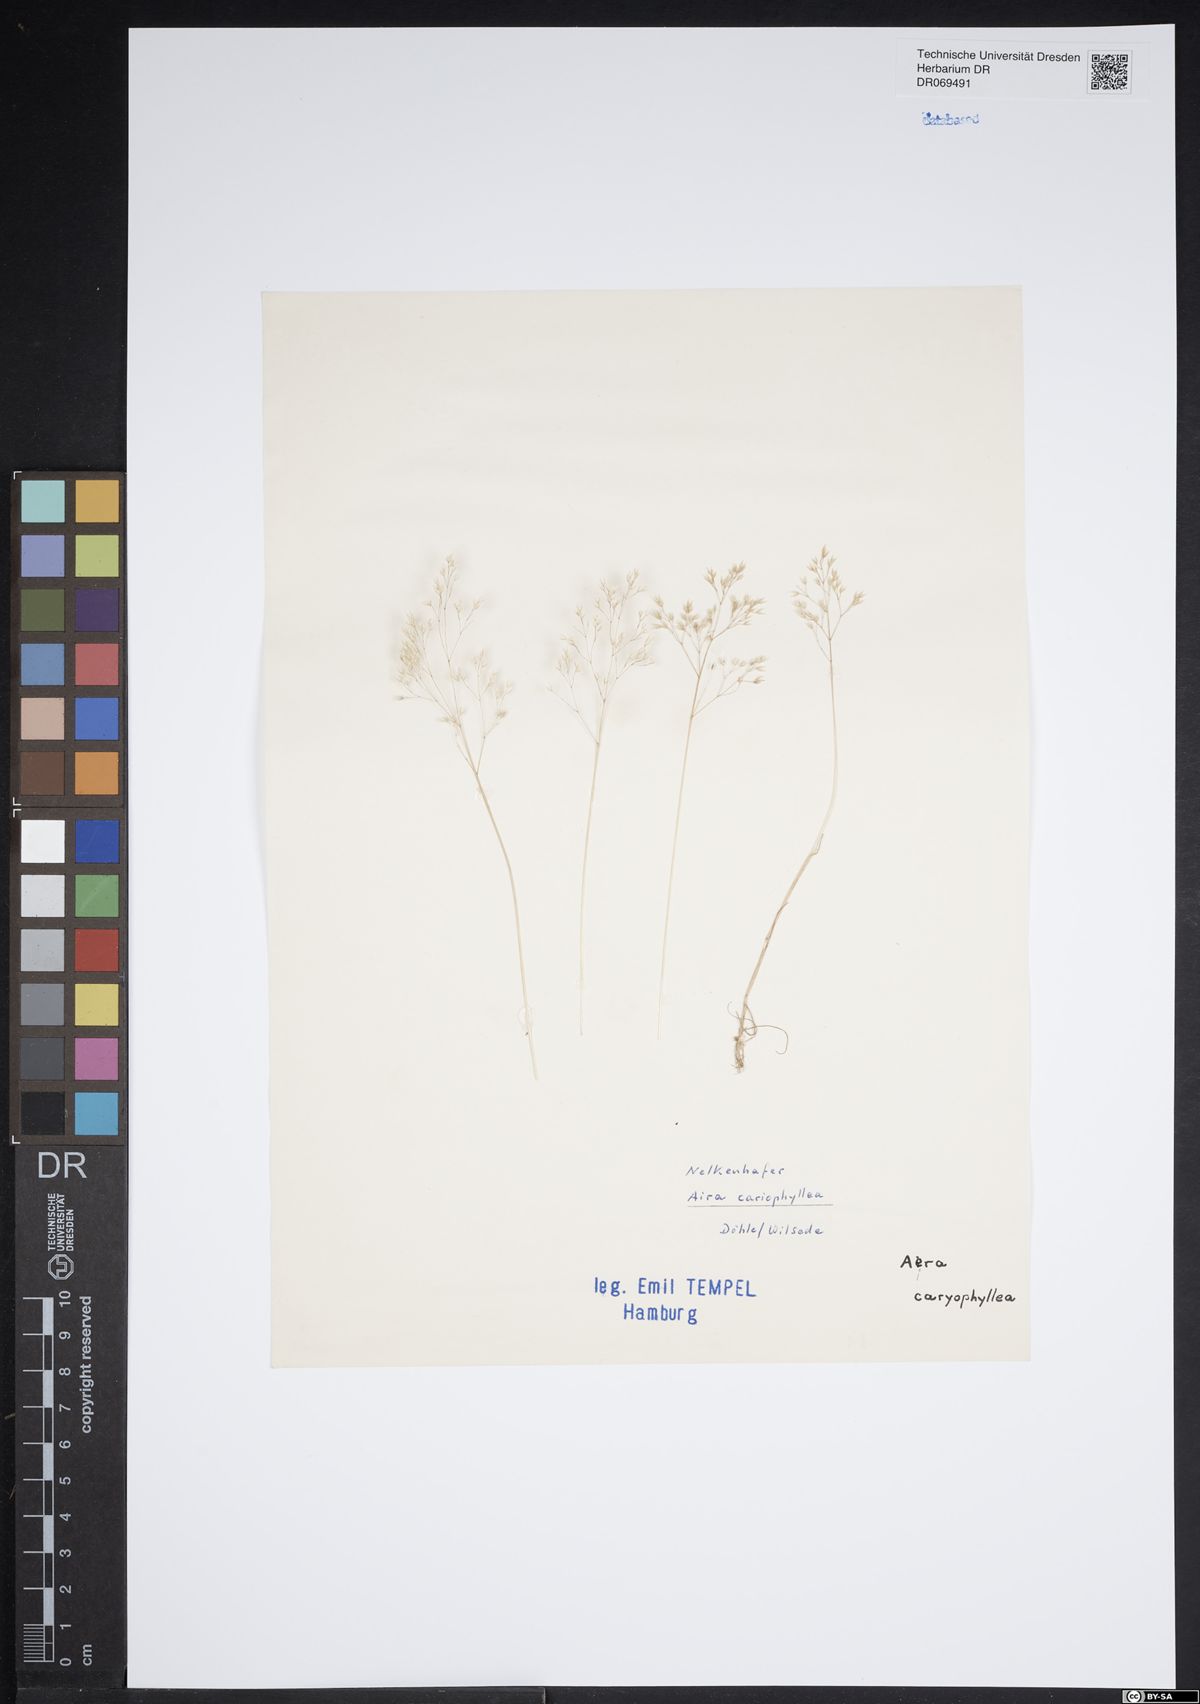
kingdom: Plantae
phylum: Tracheophyta
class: Liliopsida
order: Poales
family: Poaceae
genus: Aira
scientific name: Aira caryophyllea
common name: Silver hairgrass
